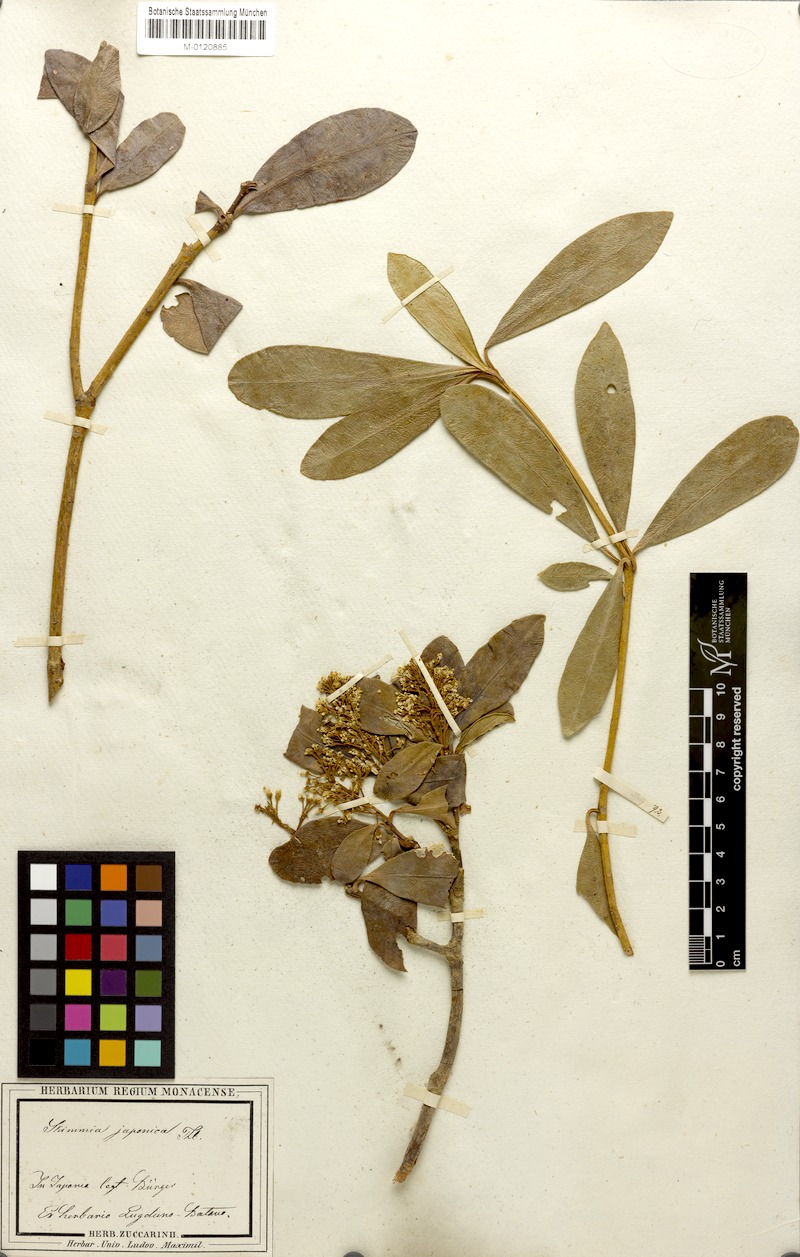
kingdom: Plantae
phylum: Tracheophyta
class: Magnoliopsida
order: Sapindales
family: Rutaceae
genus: Skimmia
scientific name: Skimmia japonica
